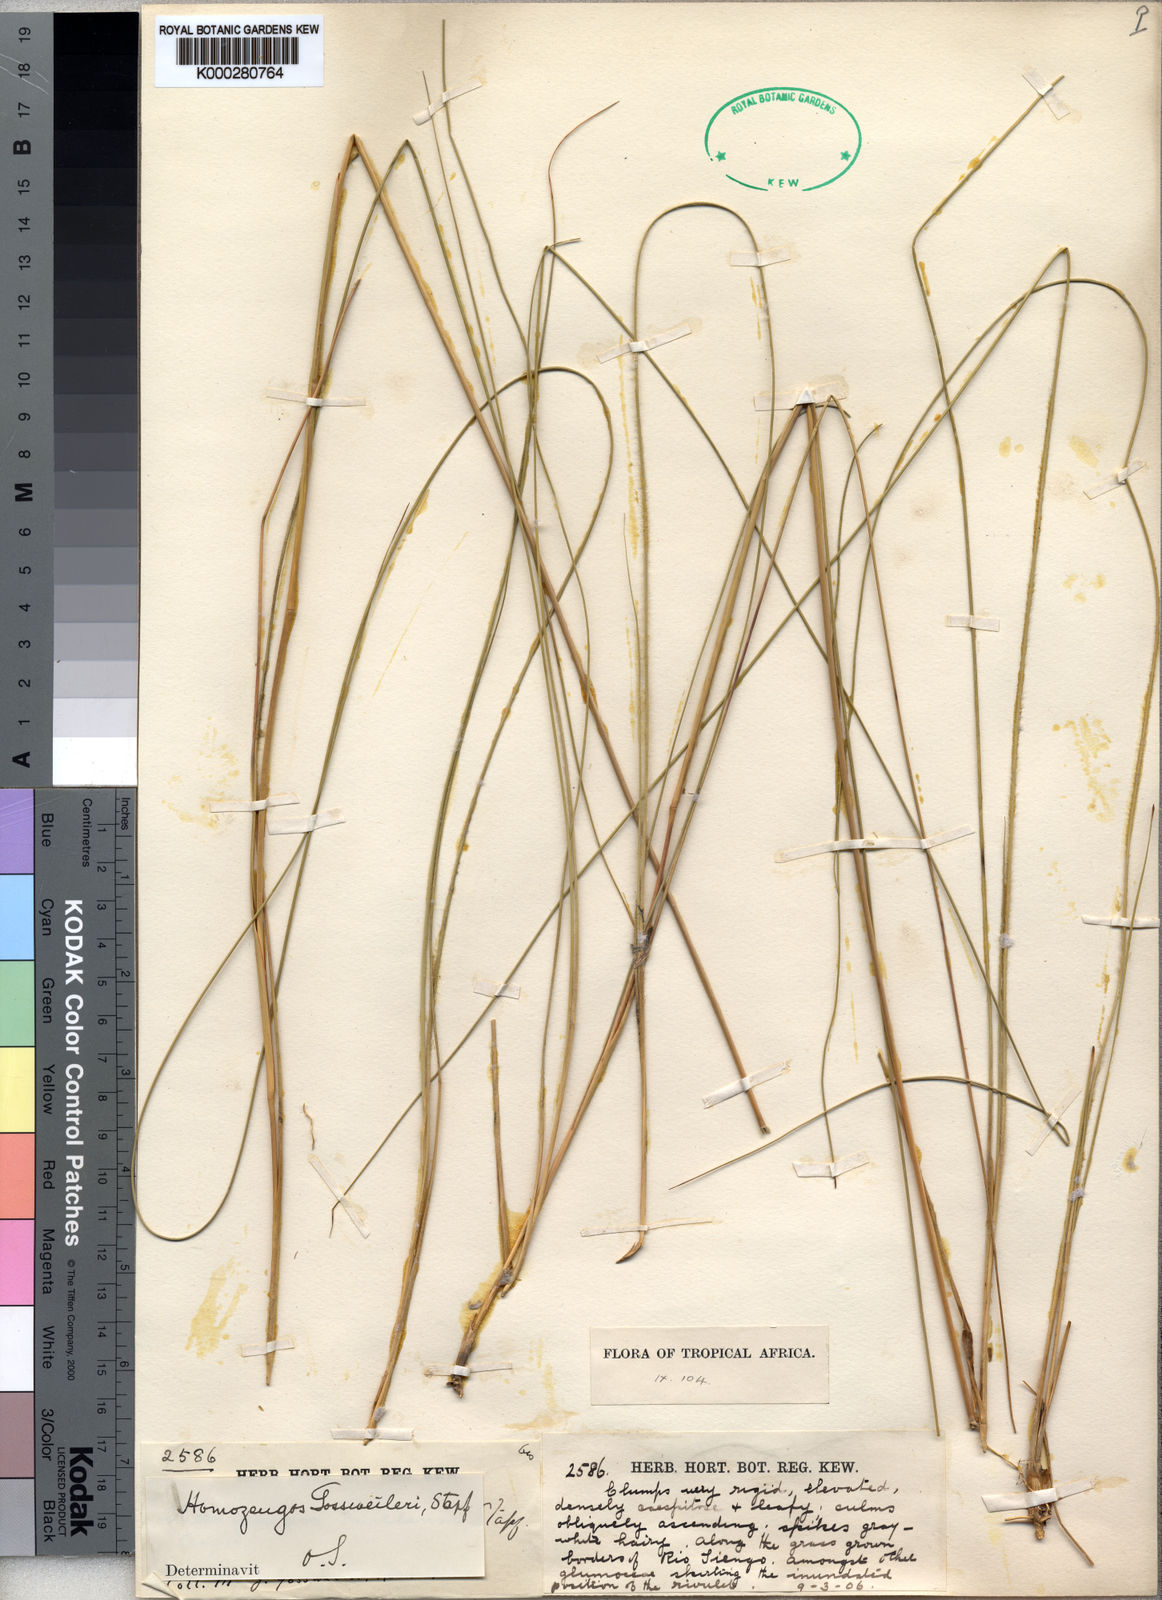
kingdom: Plantae
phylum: Tracheophyta
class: Liliopsida
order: Poales
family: Poaceae
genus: Homozeugos
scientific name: Homozeugos gossweileri
